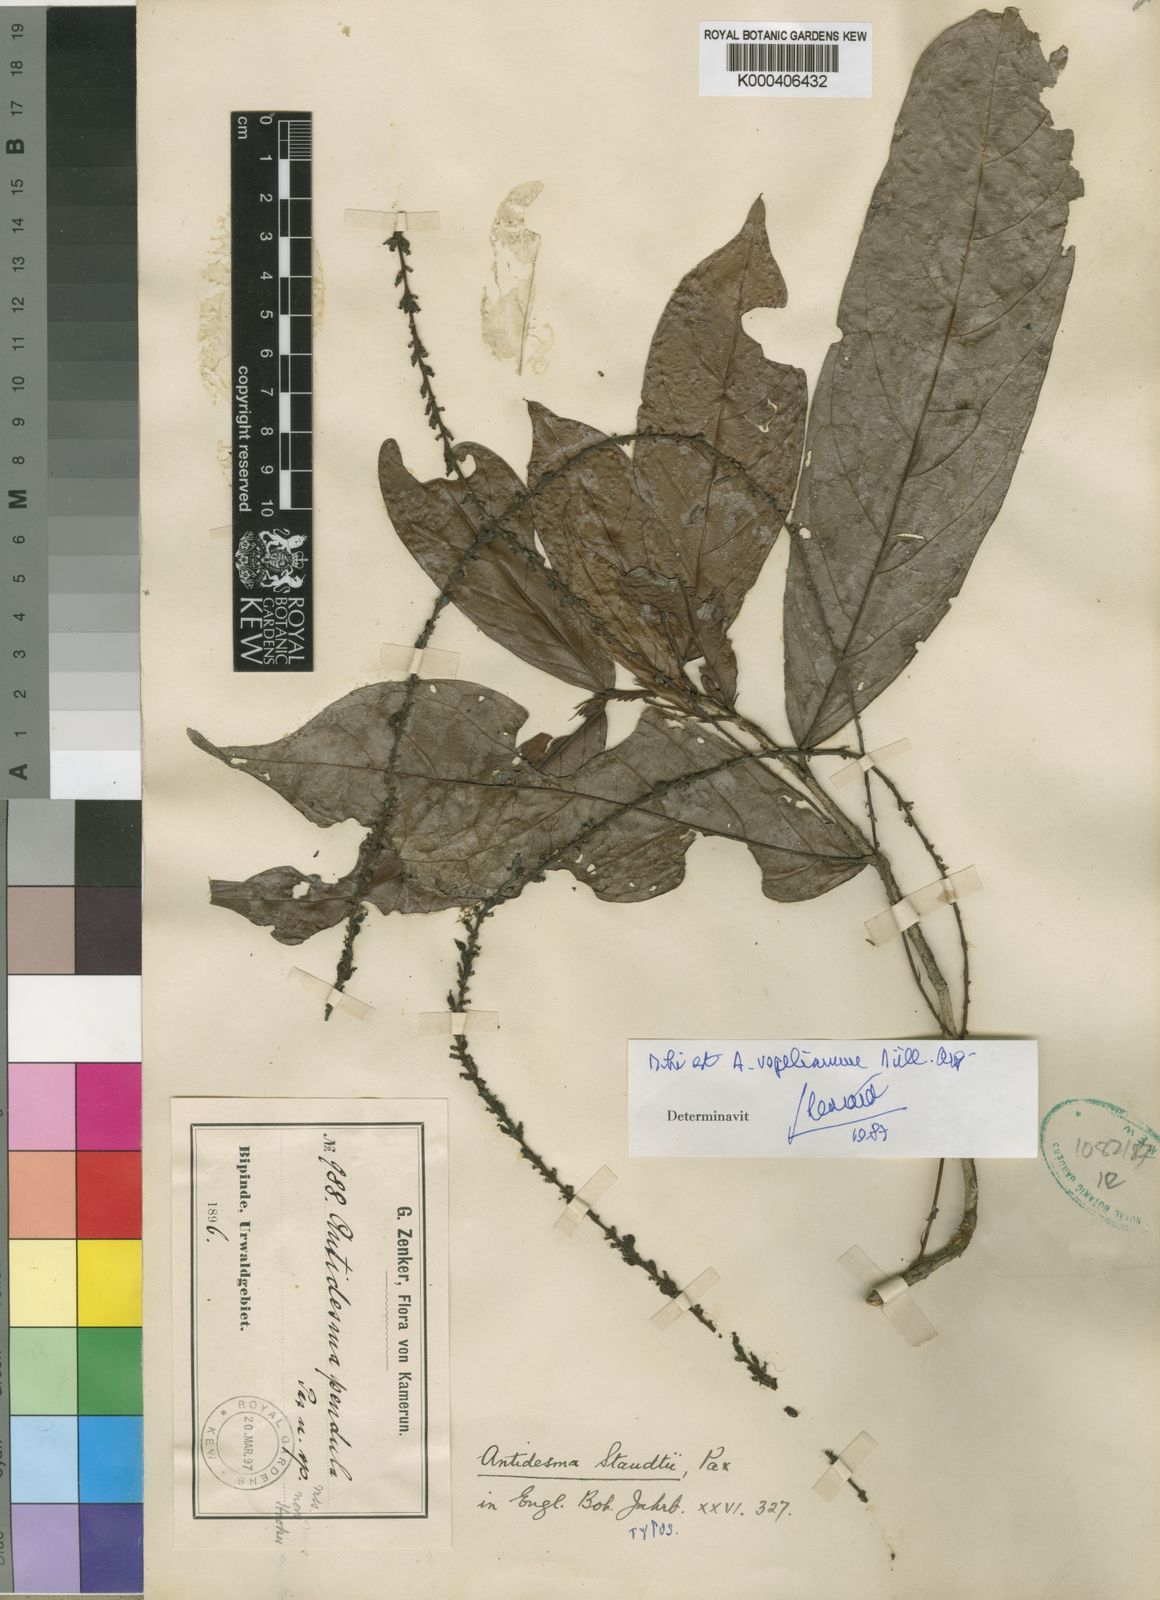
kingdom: Plantae
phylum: Tracheophyta
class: Magnoliopsida
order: Malpighiales
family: Phyllanthaceae
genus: Antidesma
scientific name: Antidesma
